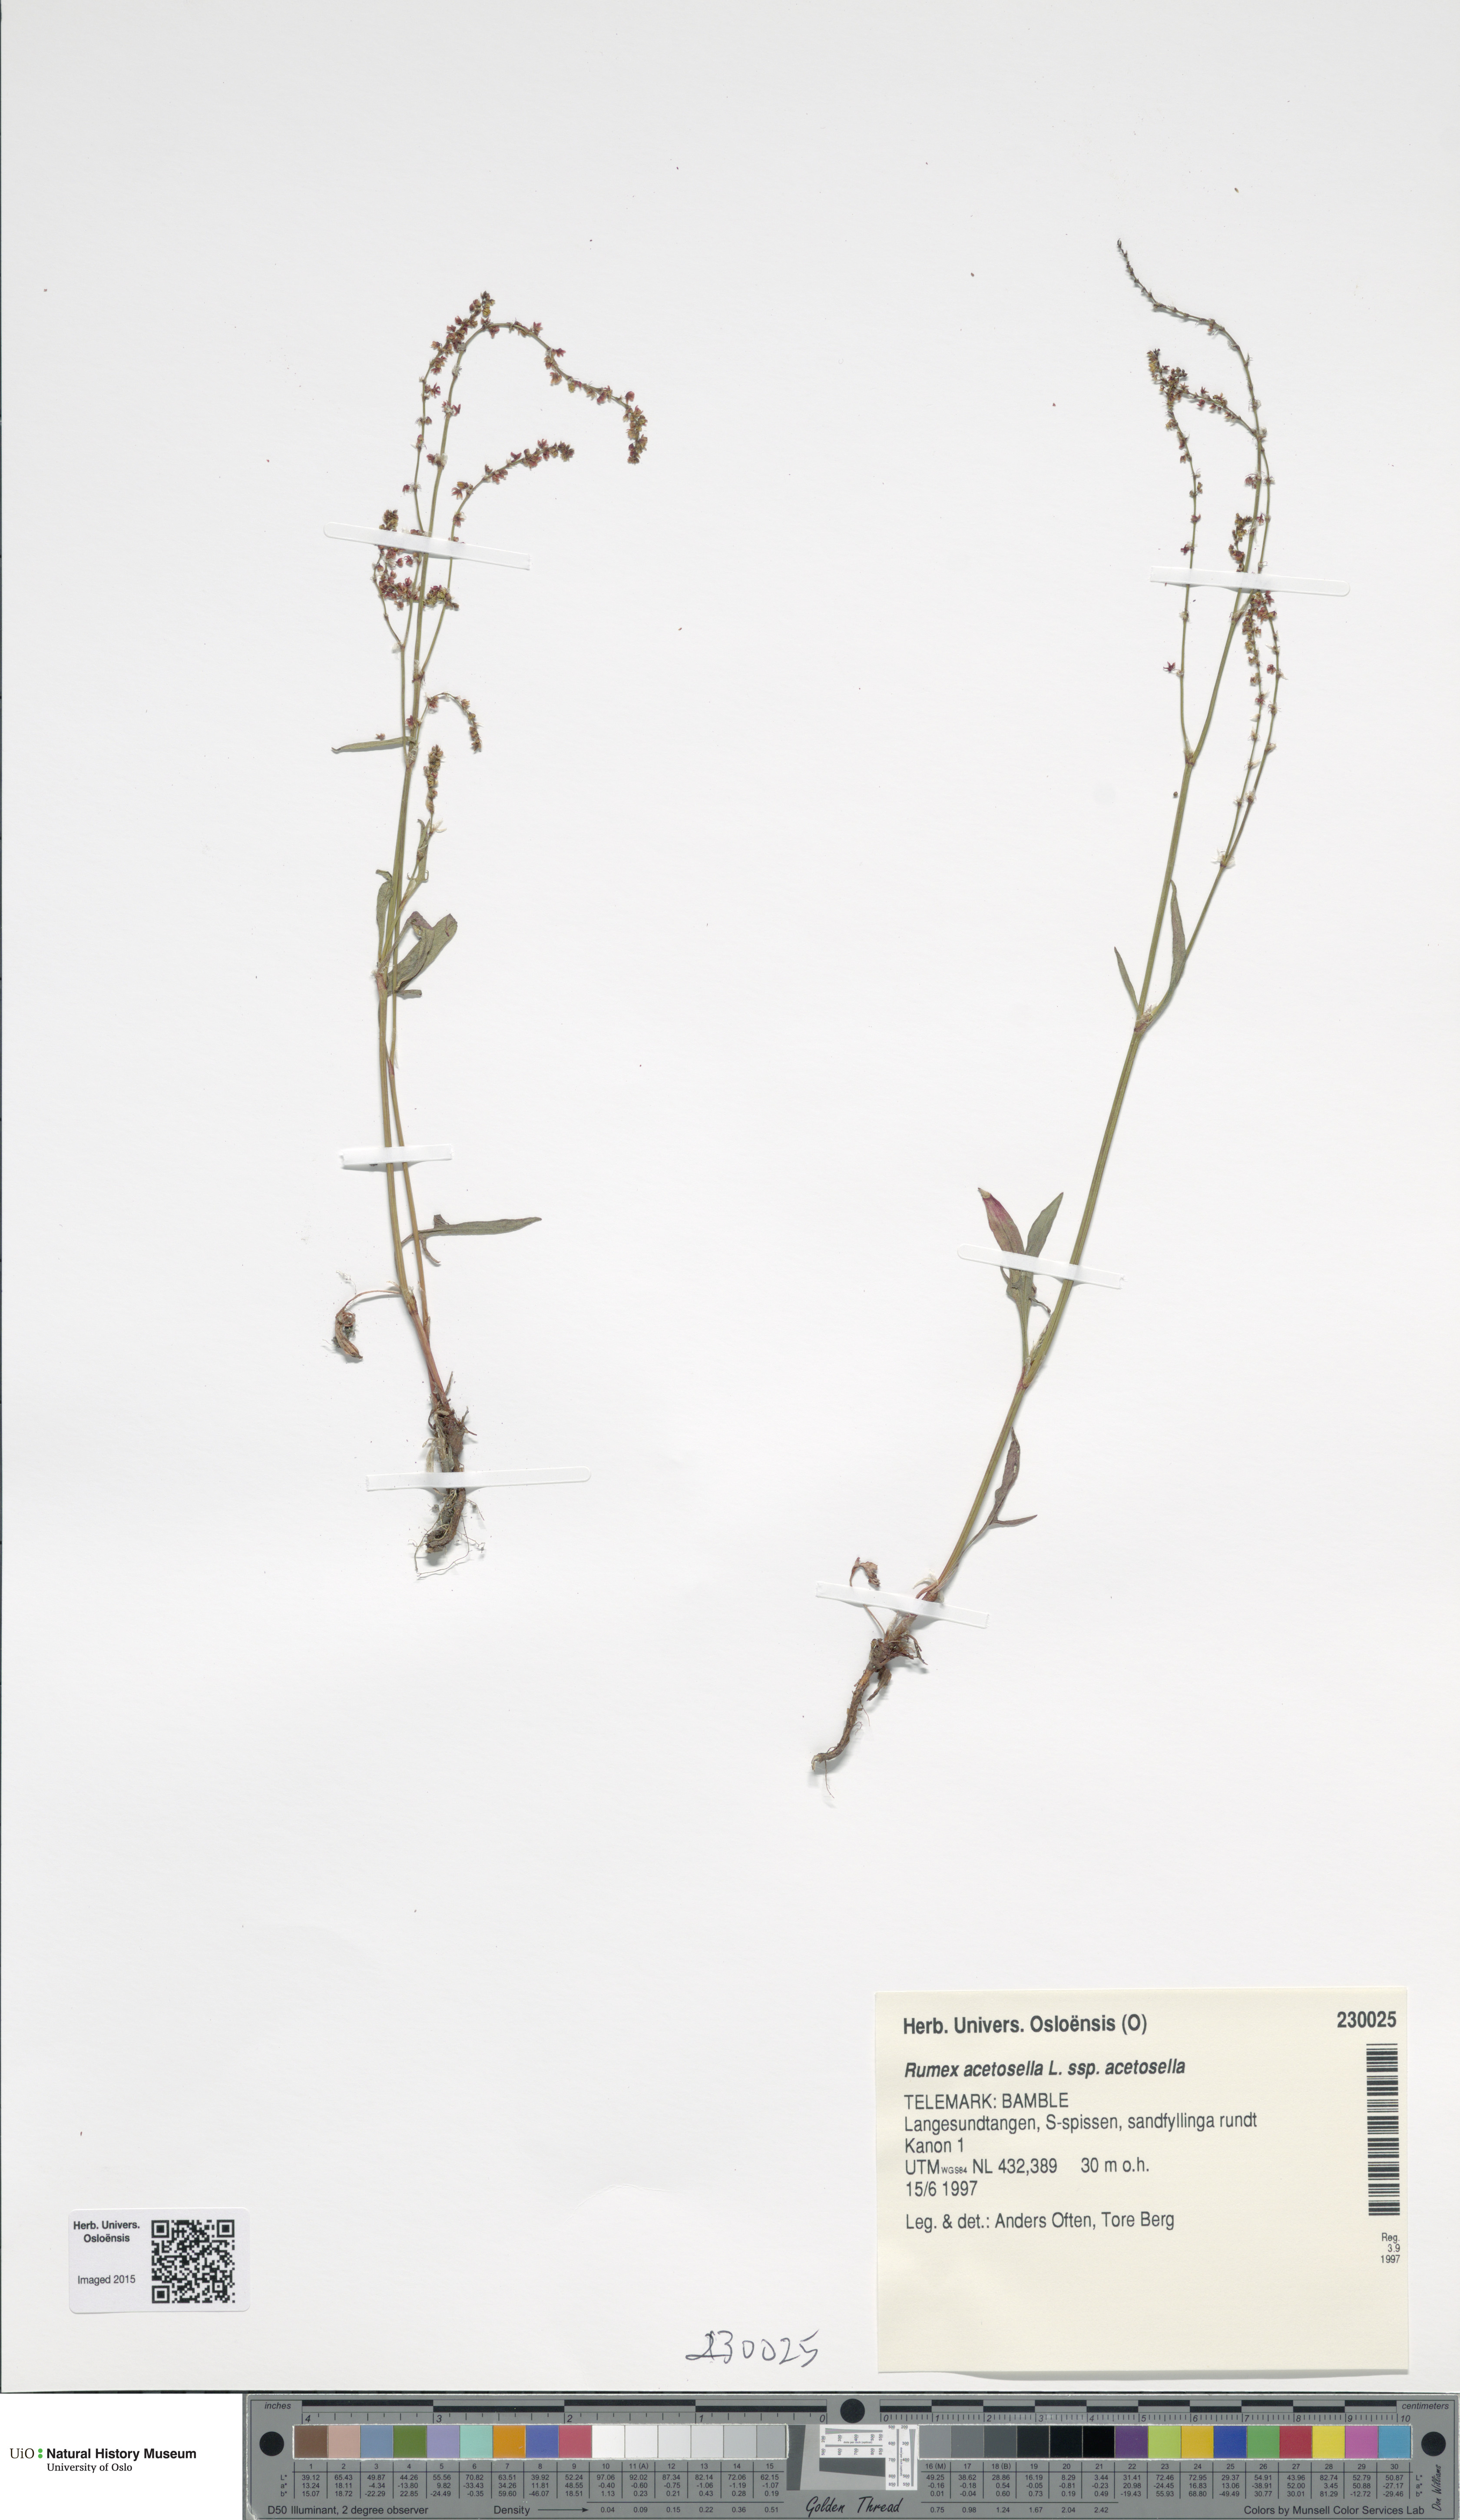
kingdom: Plantae
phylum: Tracheophyta
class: Magnoliopsida
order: Caryophyllales
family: Polygonaceae
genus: Rumex
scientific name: Rumex acetosella
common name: Common sheep sorrel
